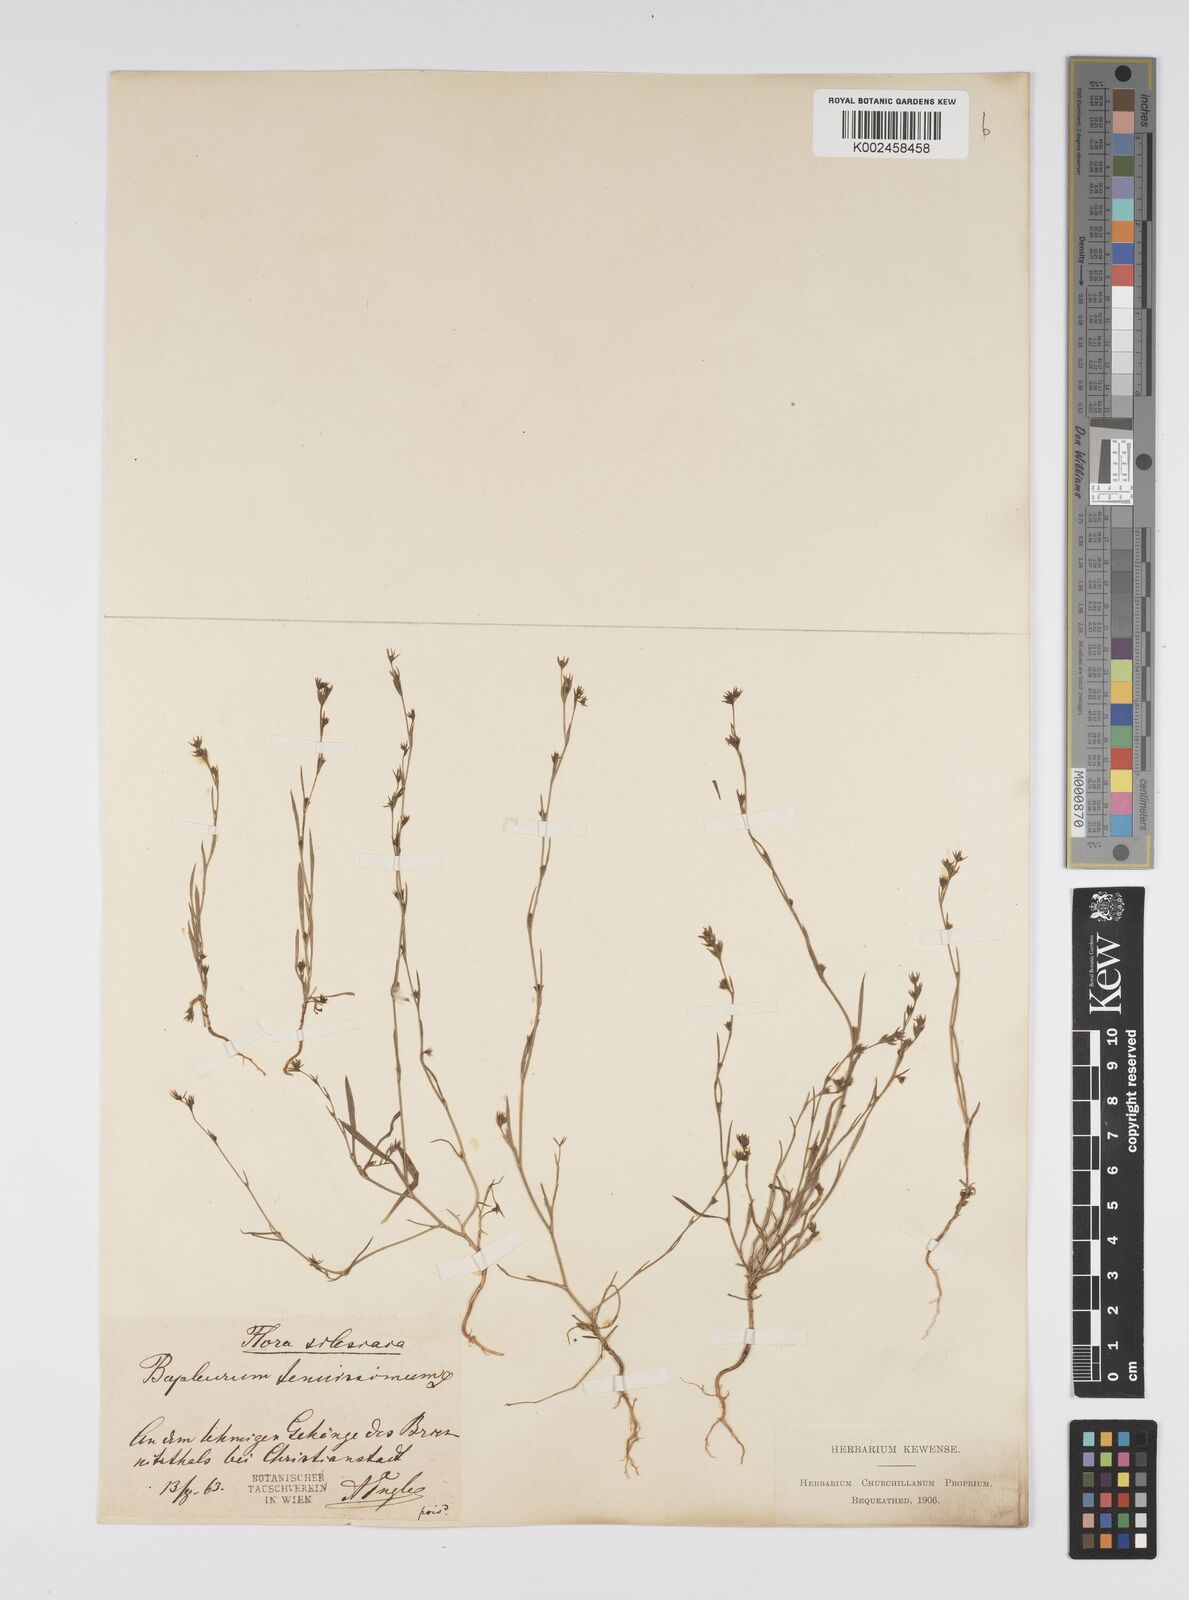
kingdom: Plantae
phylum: Tracheophyta
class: Magnoliopsida
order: Apiales
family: Apiaceae
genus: Bupleurum
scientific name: Bupleurum tenuissimum
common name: Slender hare's-ear
